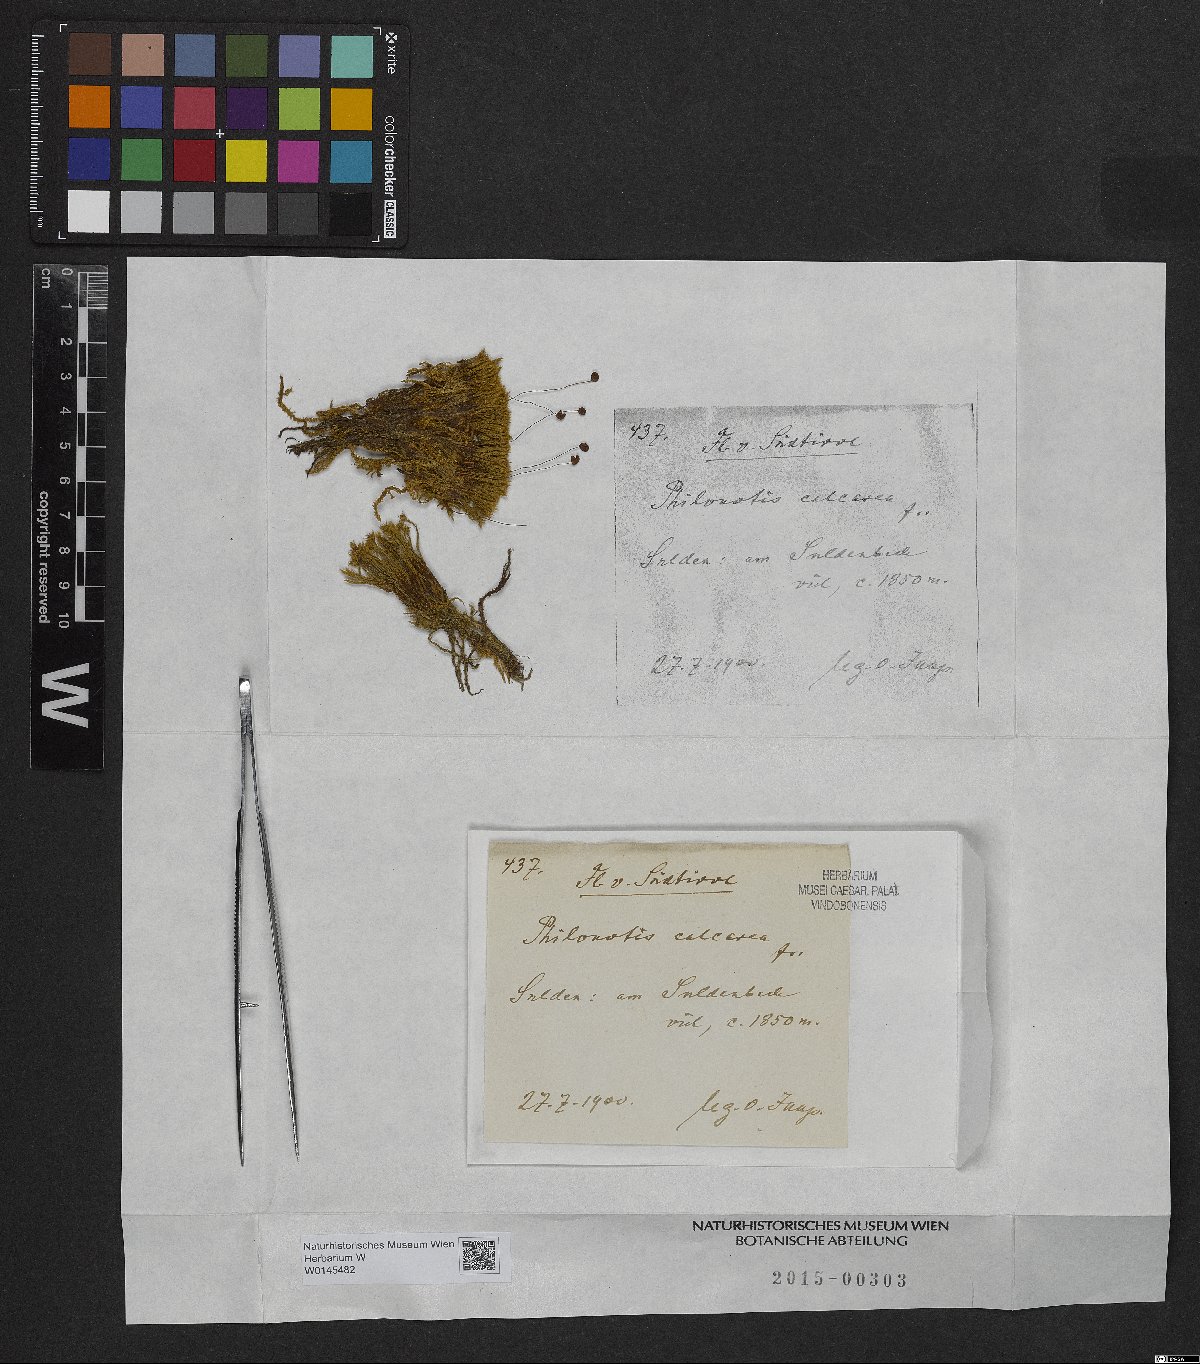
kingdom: Plantae
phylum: Bryophyta
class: Bryopsida
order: Bartramiales
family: Bartramiaceae
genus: Philonotis
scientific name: Philonotis calcarea
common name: Thick-nerved apple-moss
